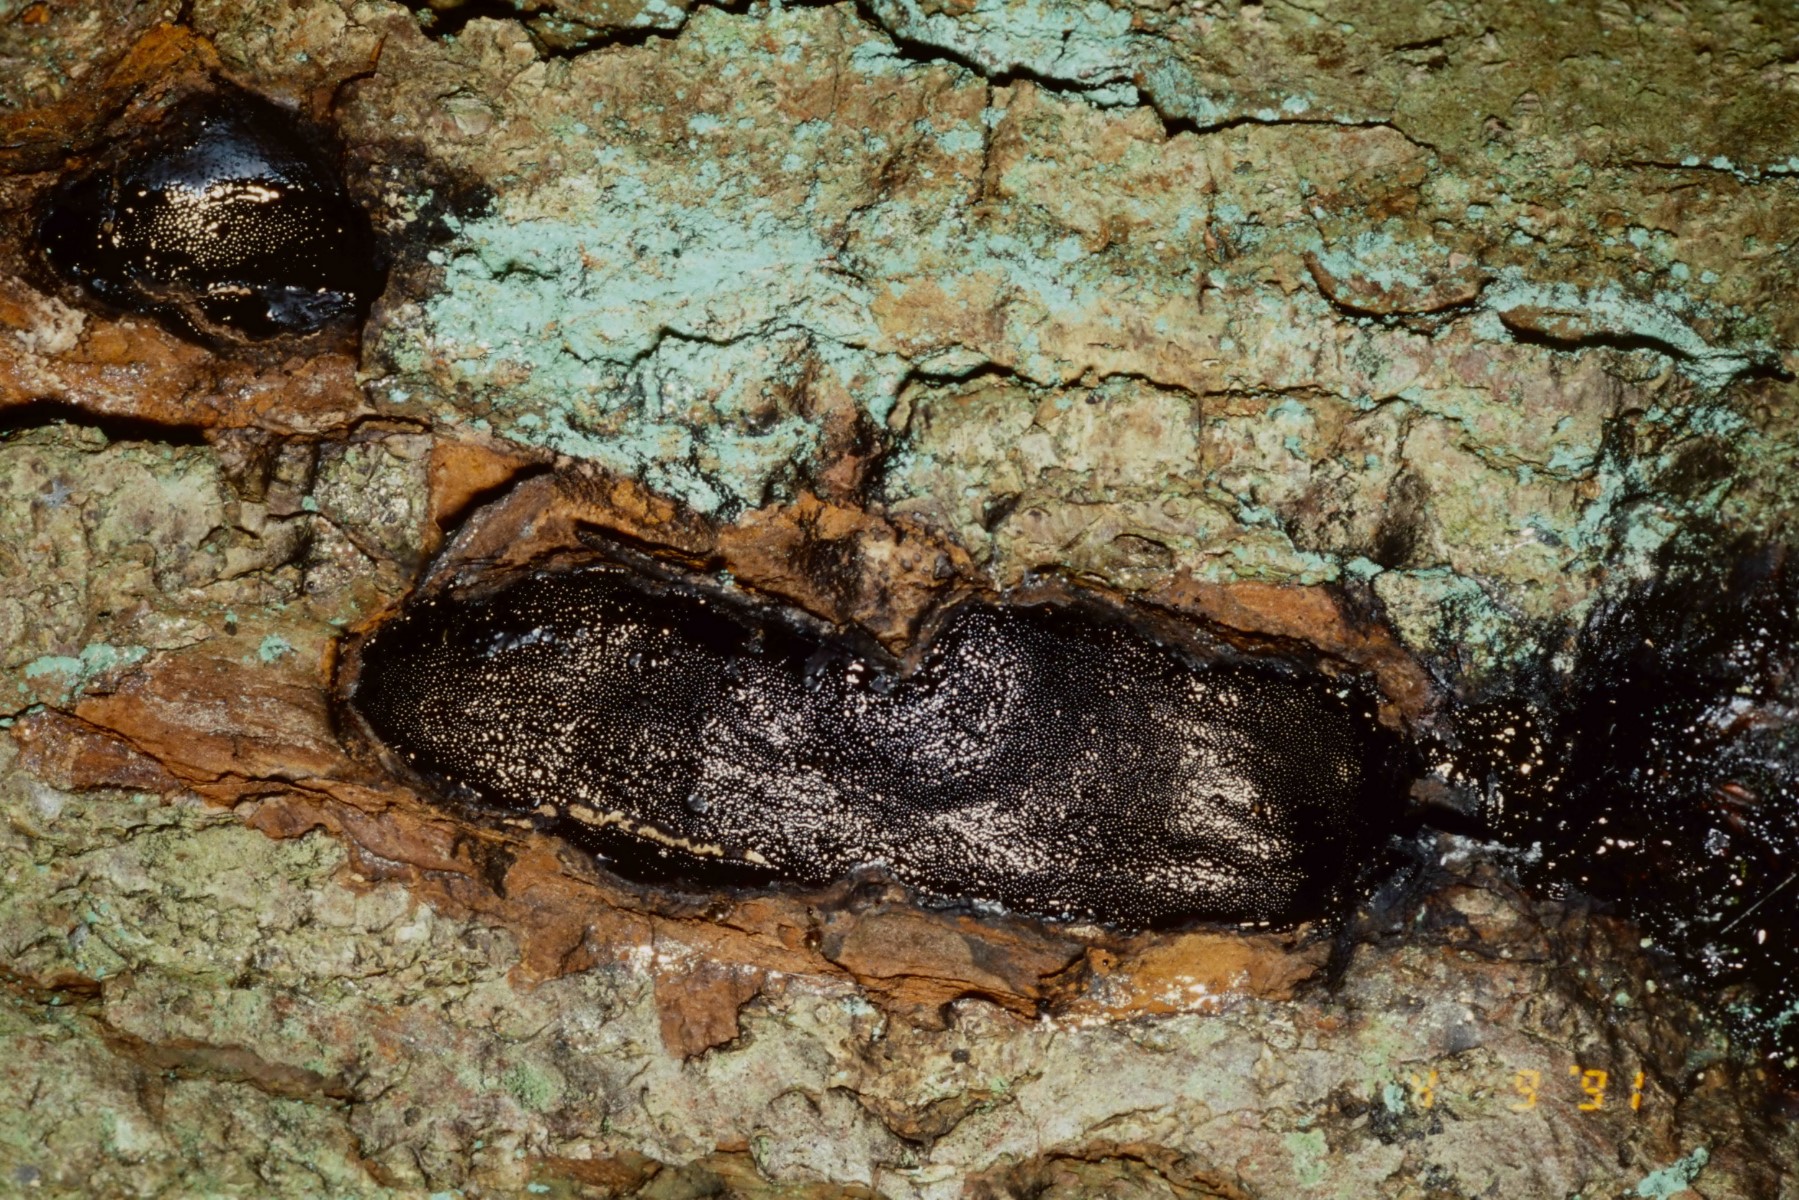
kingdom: Fungi
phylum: Ascomycota
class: Sordariomycetes
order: Boliniales
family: Boliniaceae
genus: Camarops
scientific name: Camarops polysperma
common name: elle-kulsnegl
